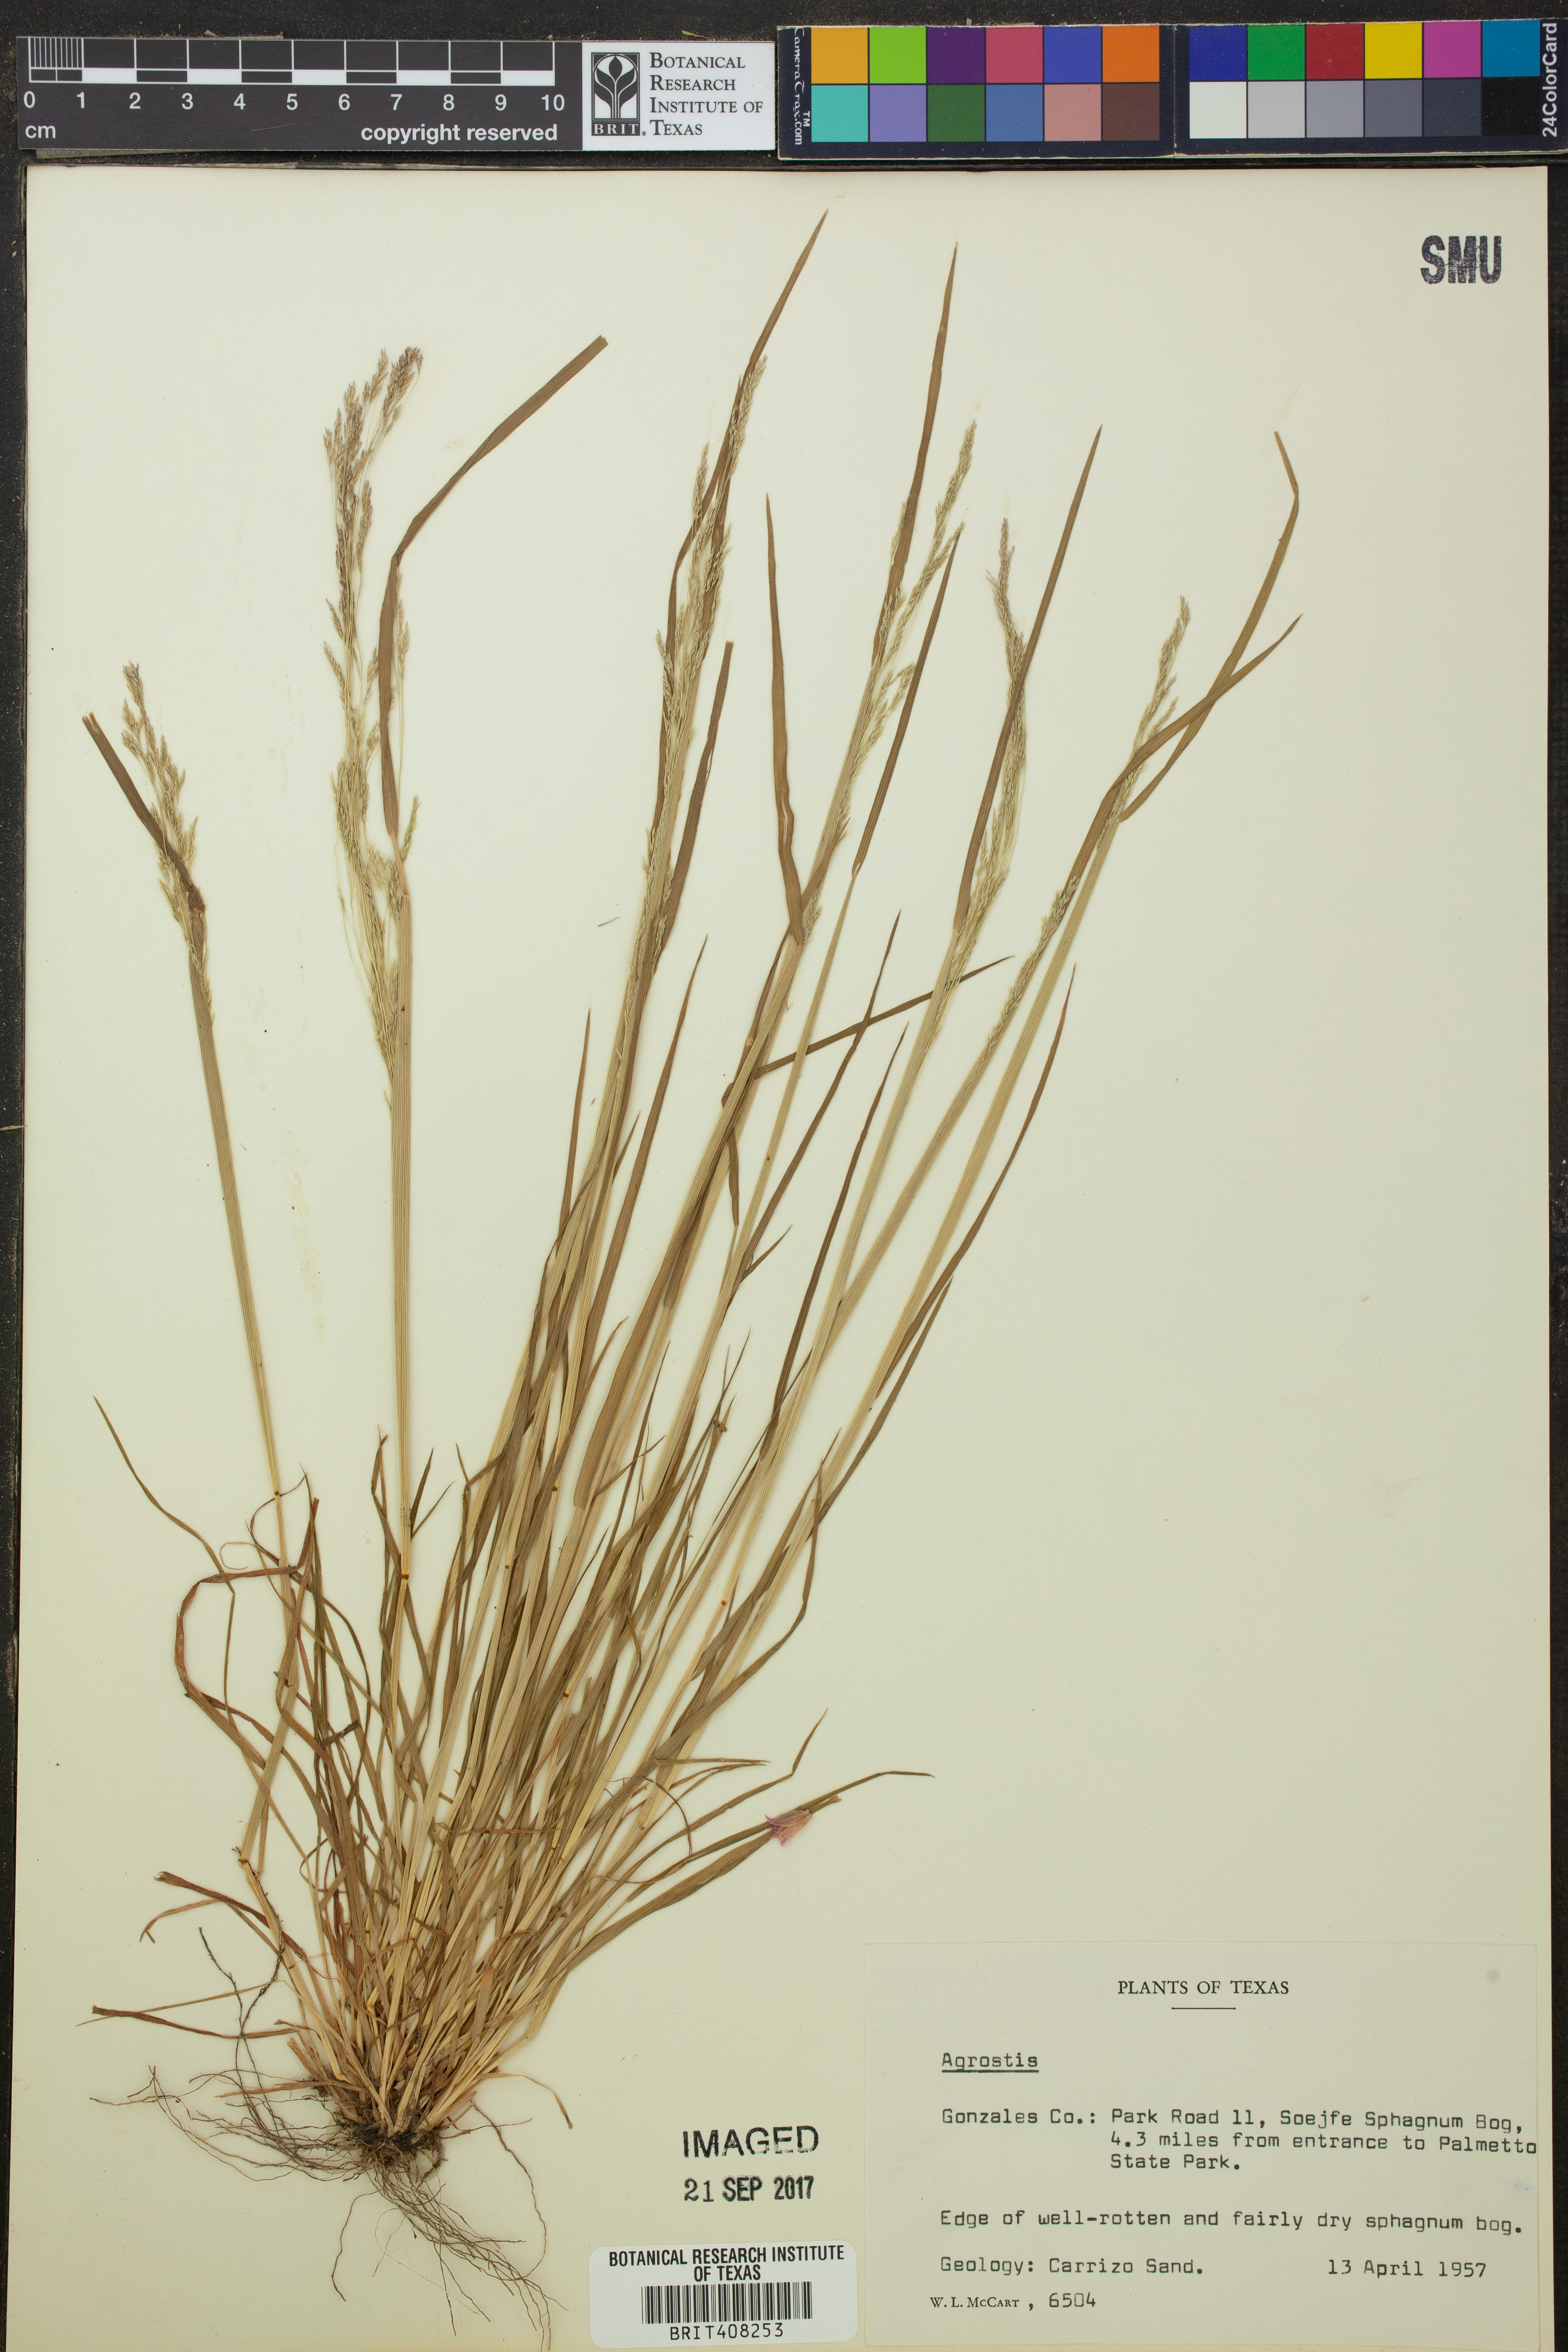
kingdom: Plantae
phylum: Tracheophyta
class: Liliopsida
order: Poales
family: Poaceae
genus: Agrostis
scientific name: Agrostis
